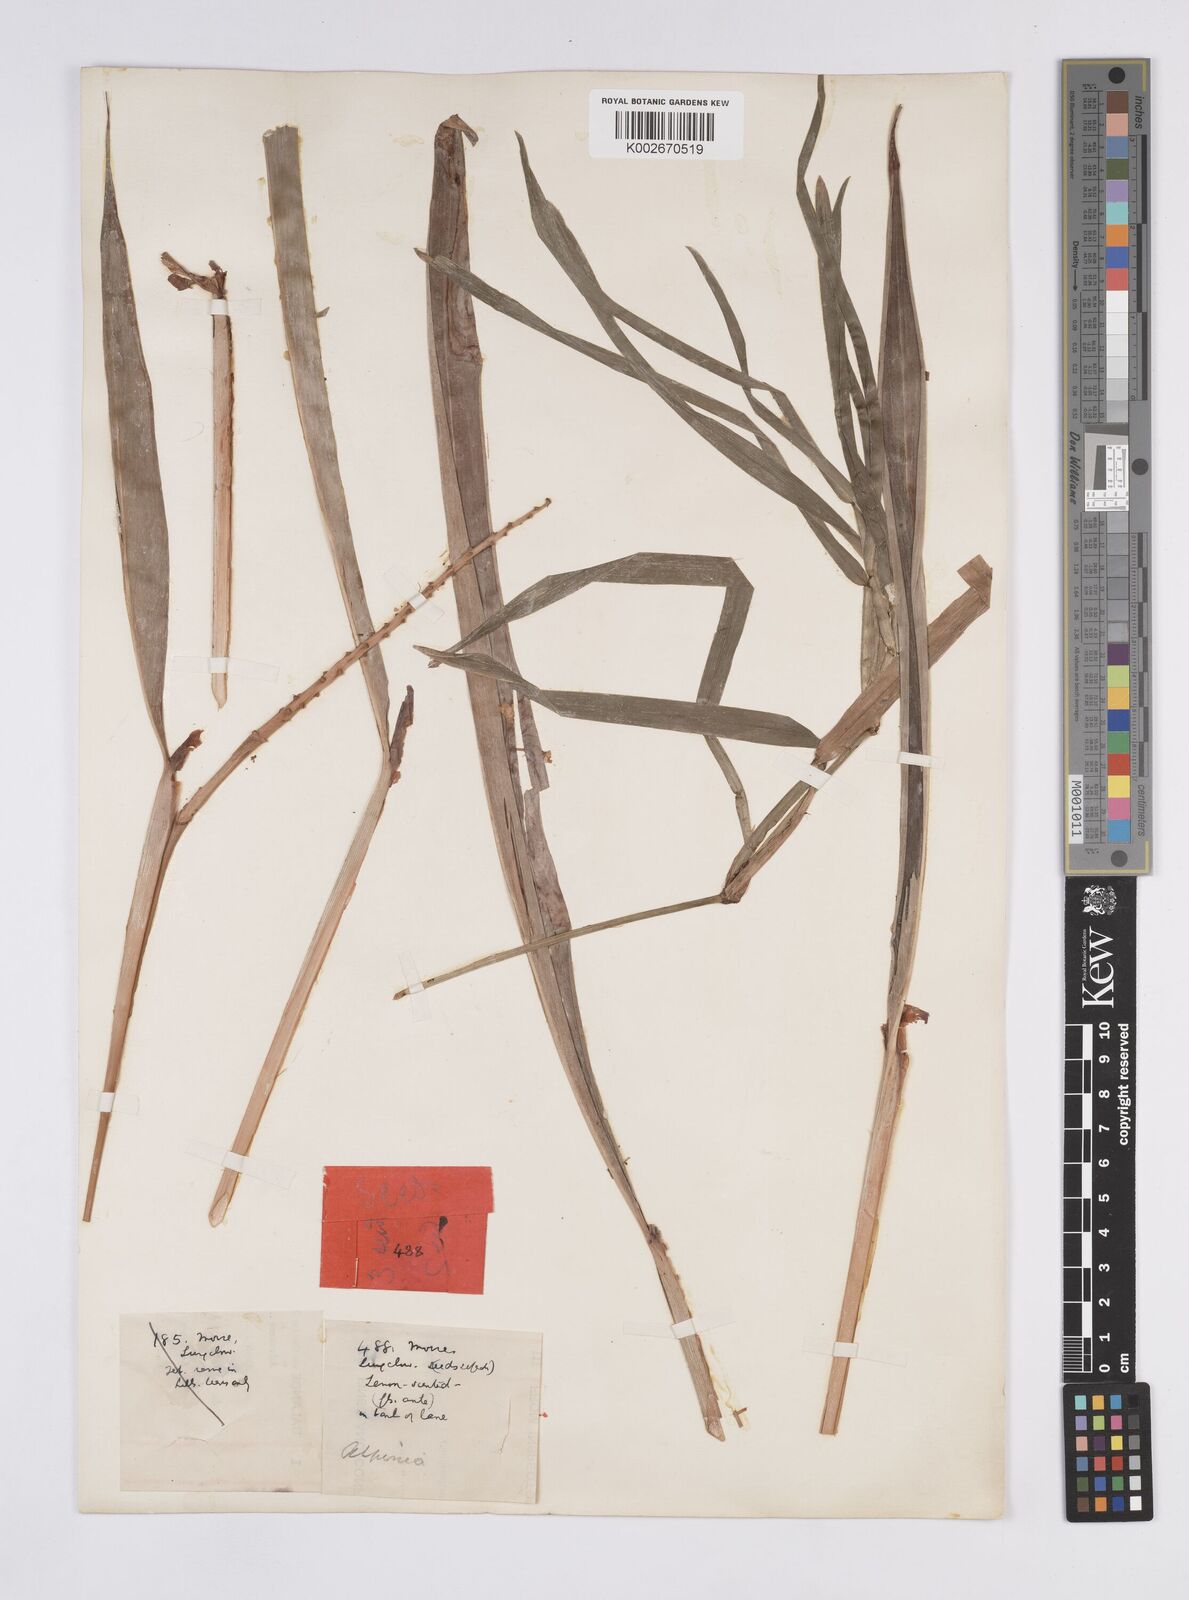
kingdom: Plantae
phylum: Tracheophyta
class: Liliopsida
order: Zingiberales
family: Zingiberaceae
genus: Alpinia
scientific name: Alpinia
